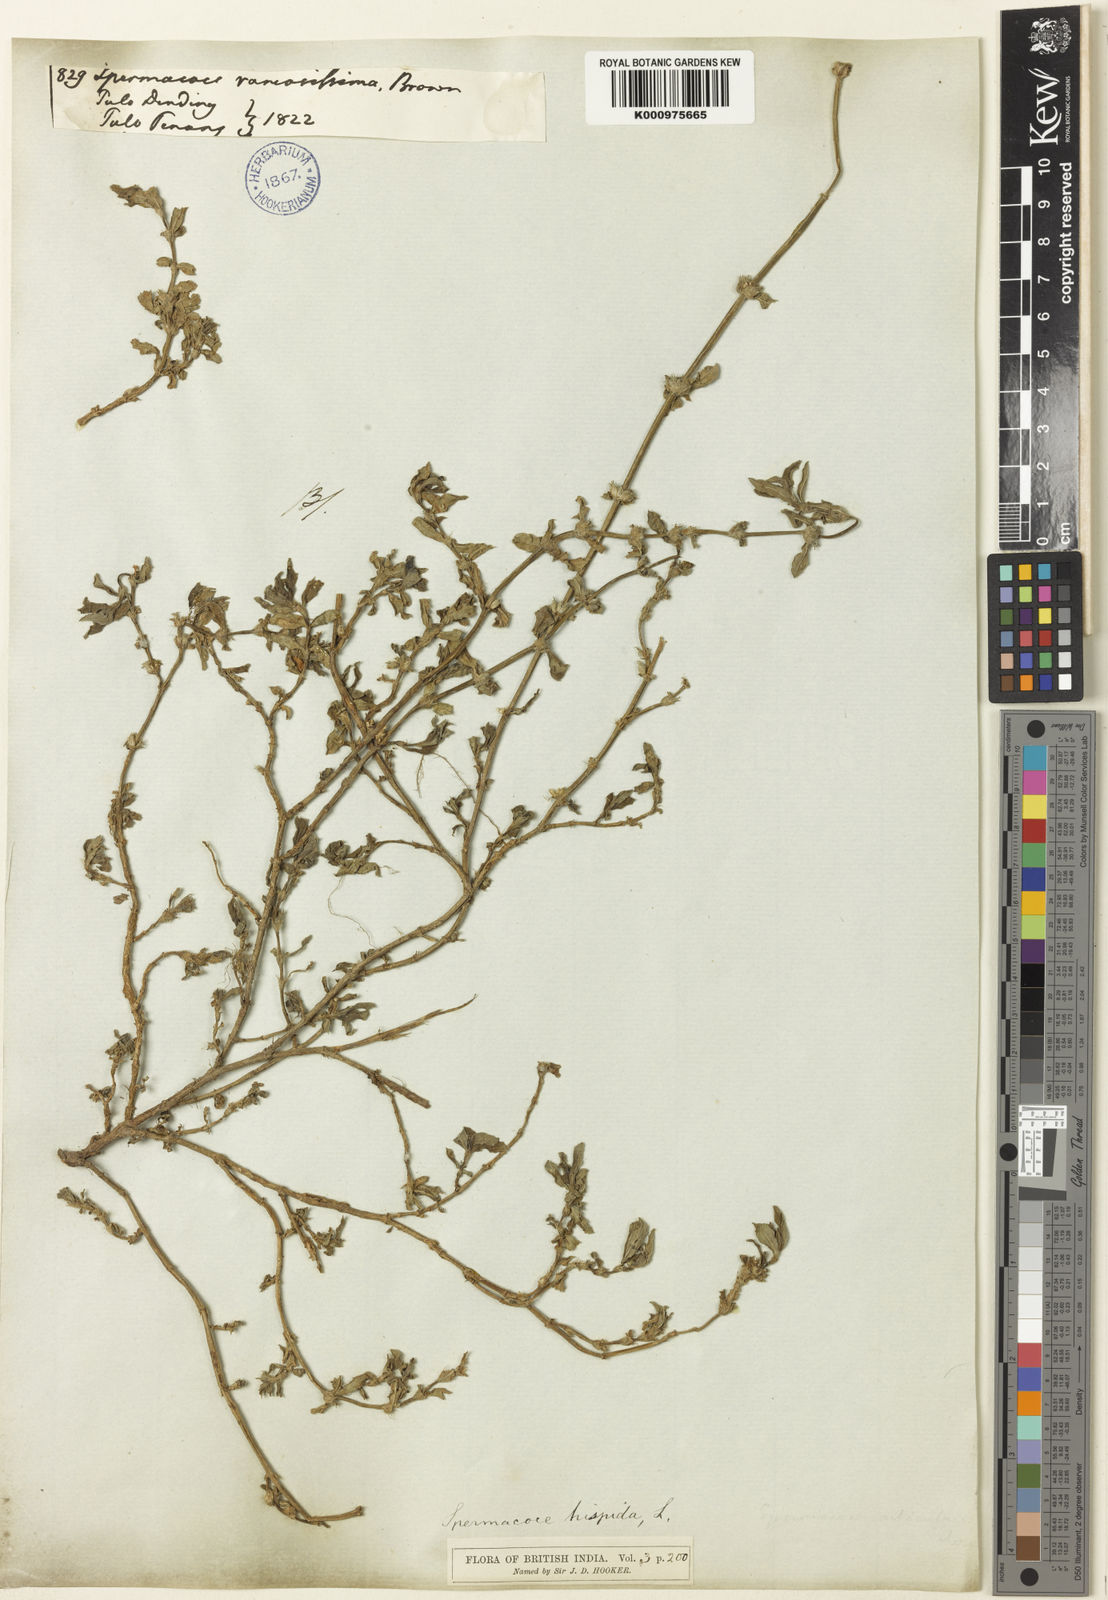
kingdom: Plantae
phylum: Tracheophyta
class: Magnoliopsida
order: Gentianales
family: Rubiaceae
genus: Spermacoce
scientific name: Spermacoce articularis
